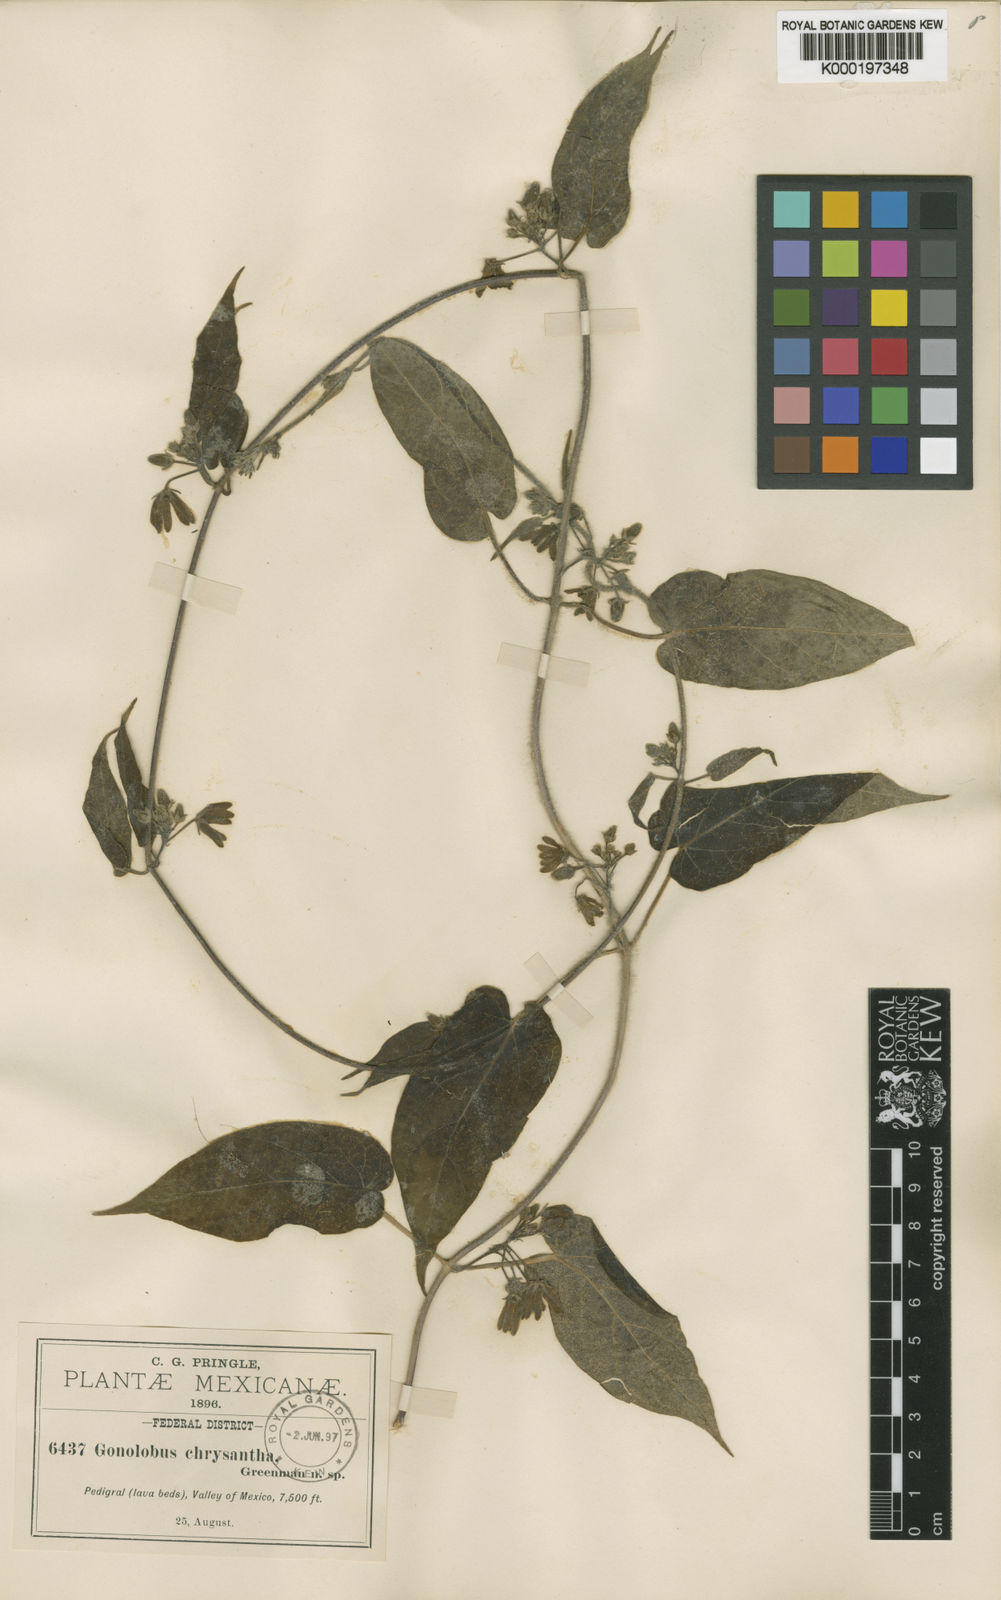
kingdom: Plantae
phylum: Tracheophyta
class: Magnoliopsida
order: Gentianales
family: Apocynaceae
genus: Matelea
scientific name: Matelea chrysantha
